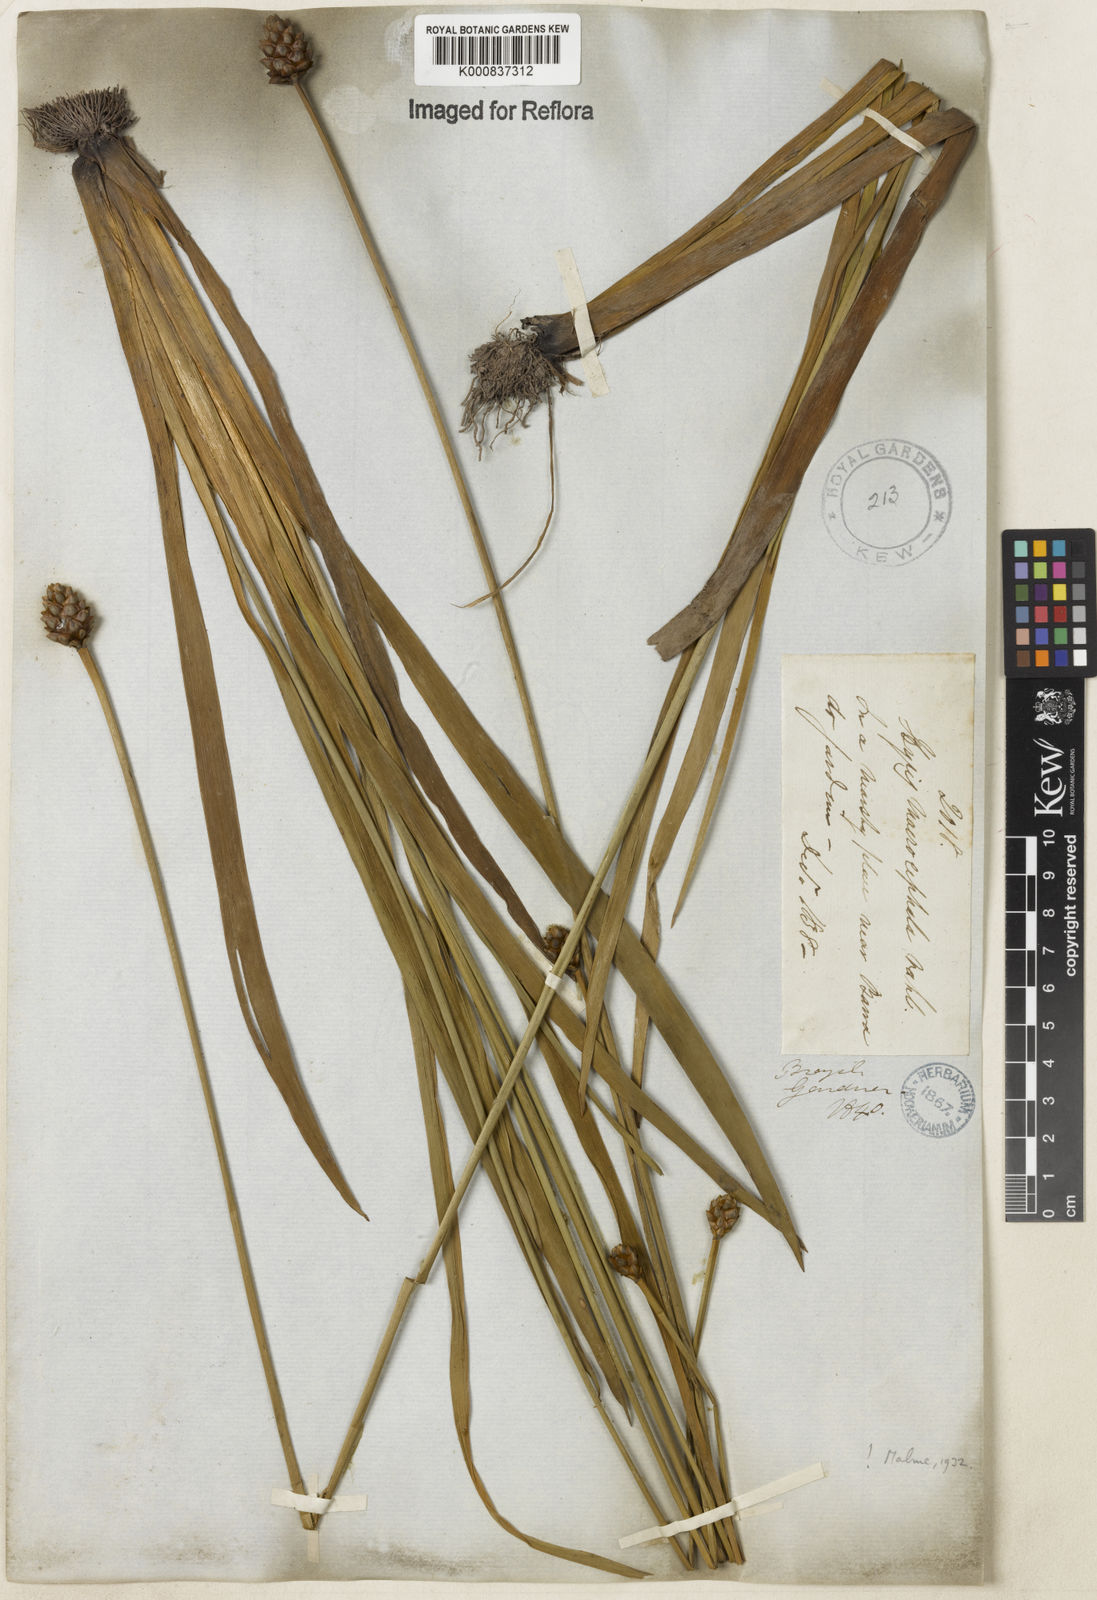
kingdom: Plantae
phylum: Tracheophyta
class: Liliopsida
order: Poales
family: Xyridaceae
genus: Xyris
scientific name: Xyris jupicai
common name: Richard's yelloweyed grass
